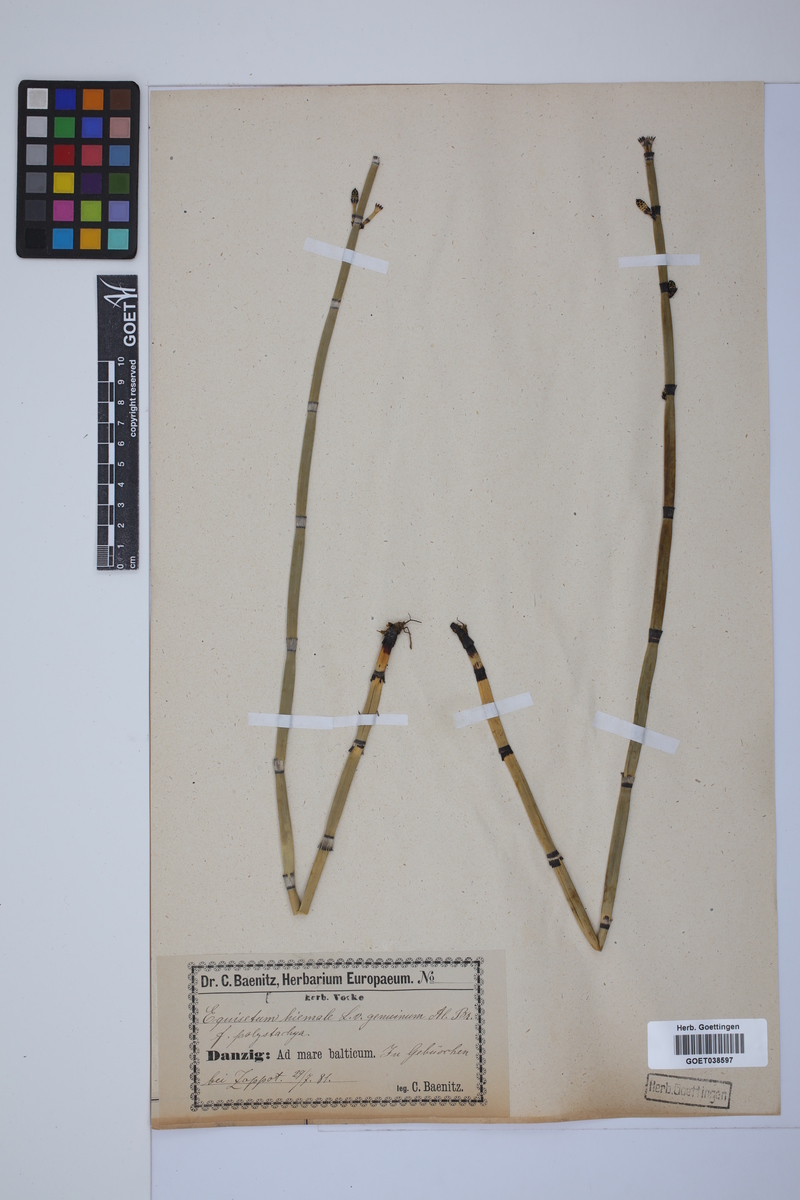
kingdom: Plantae
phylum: Tracheophyta
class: Polypodiopsida
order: Equisetales
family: Equisetaceae
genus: Equisetum
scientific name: Equisetum hyemale
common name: Rough horsetail
